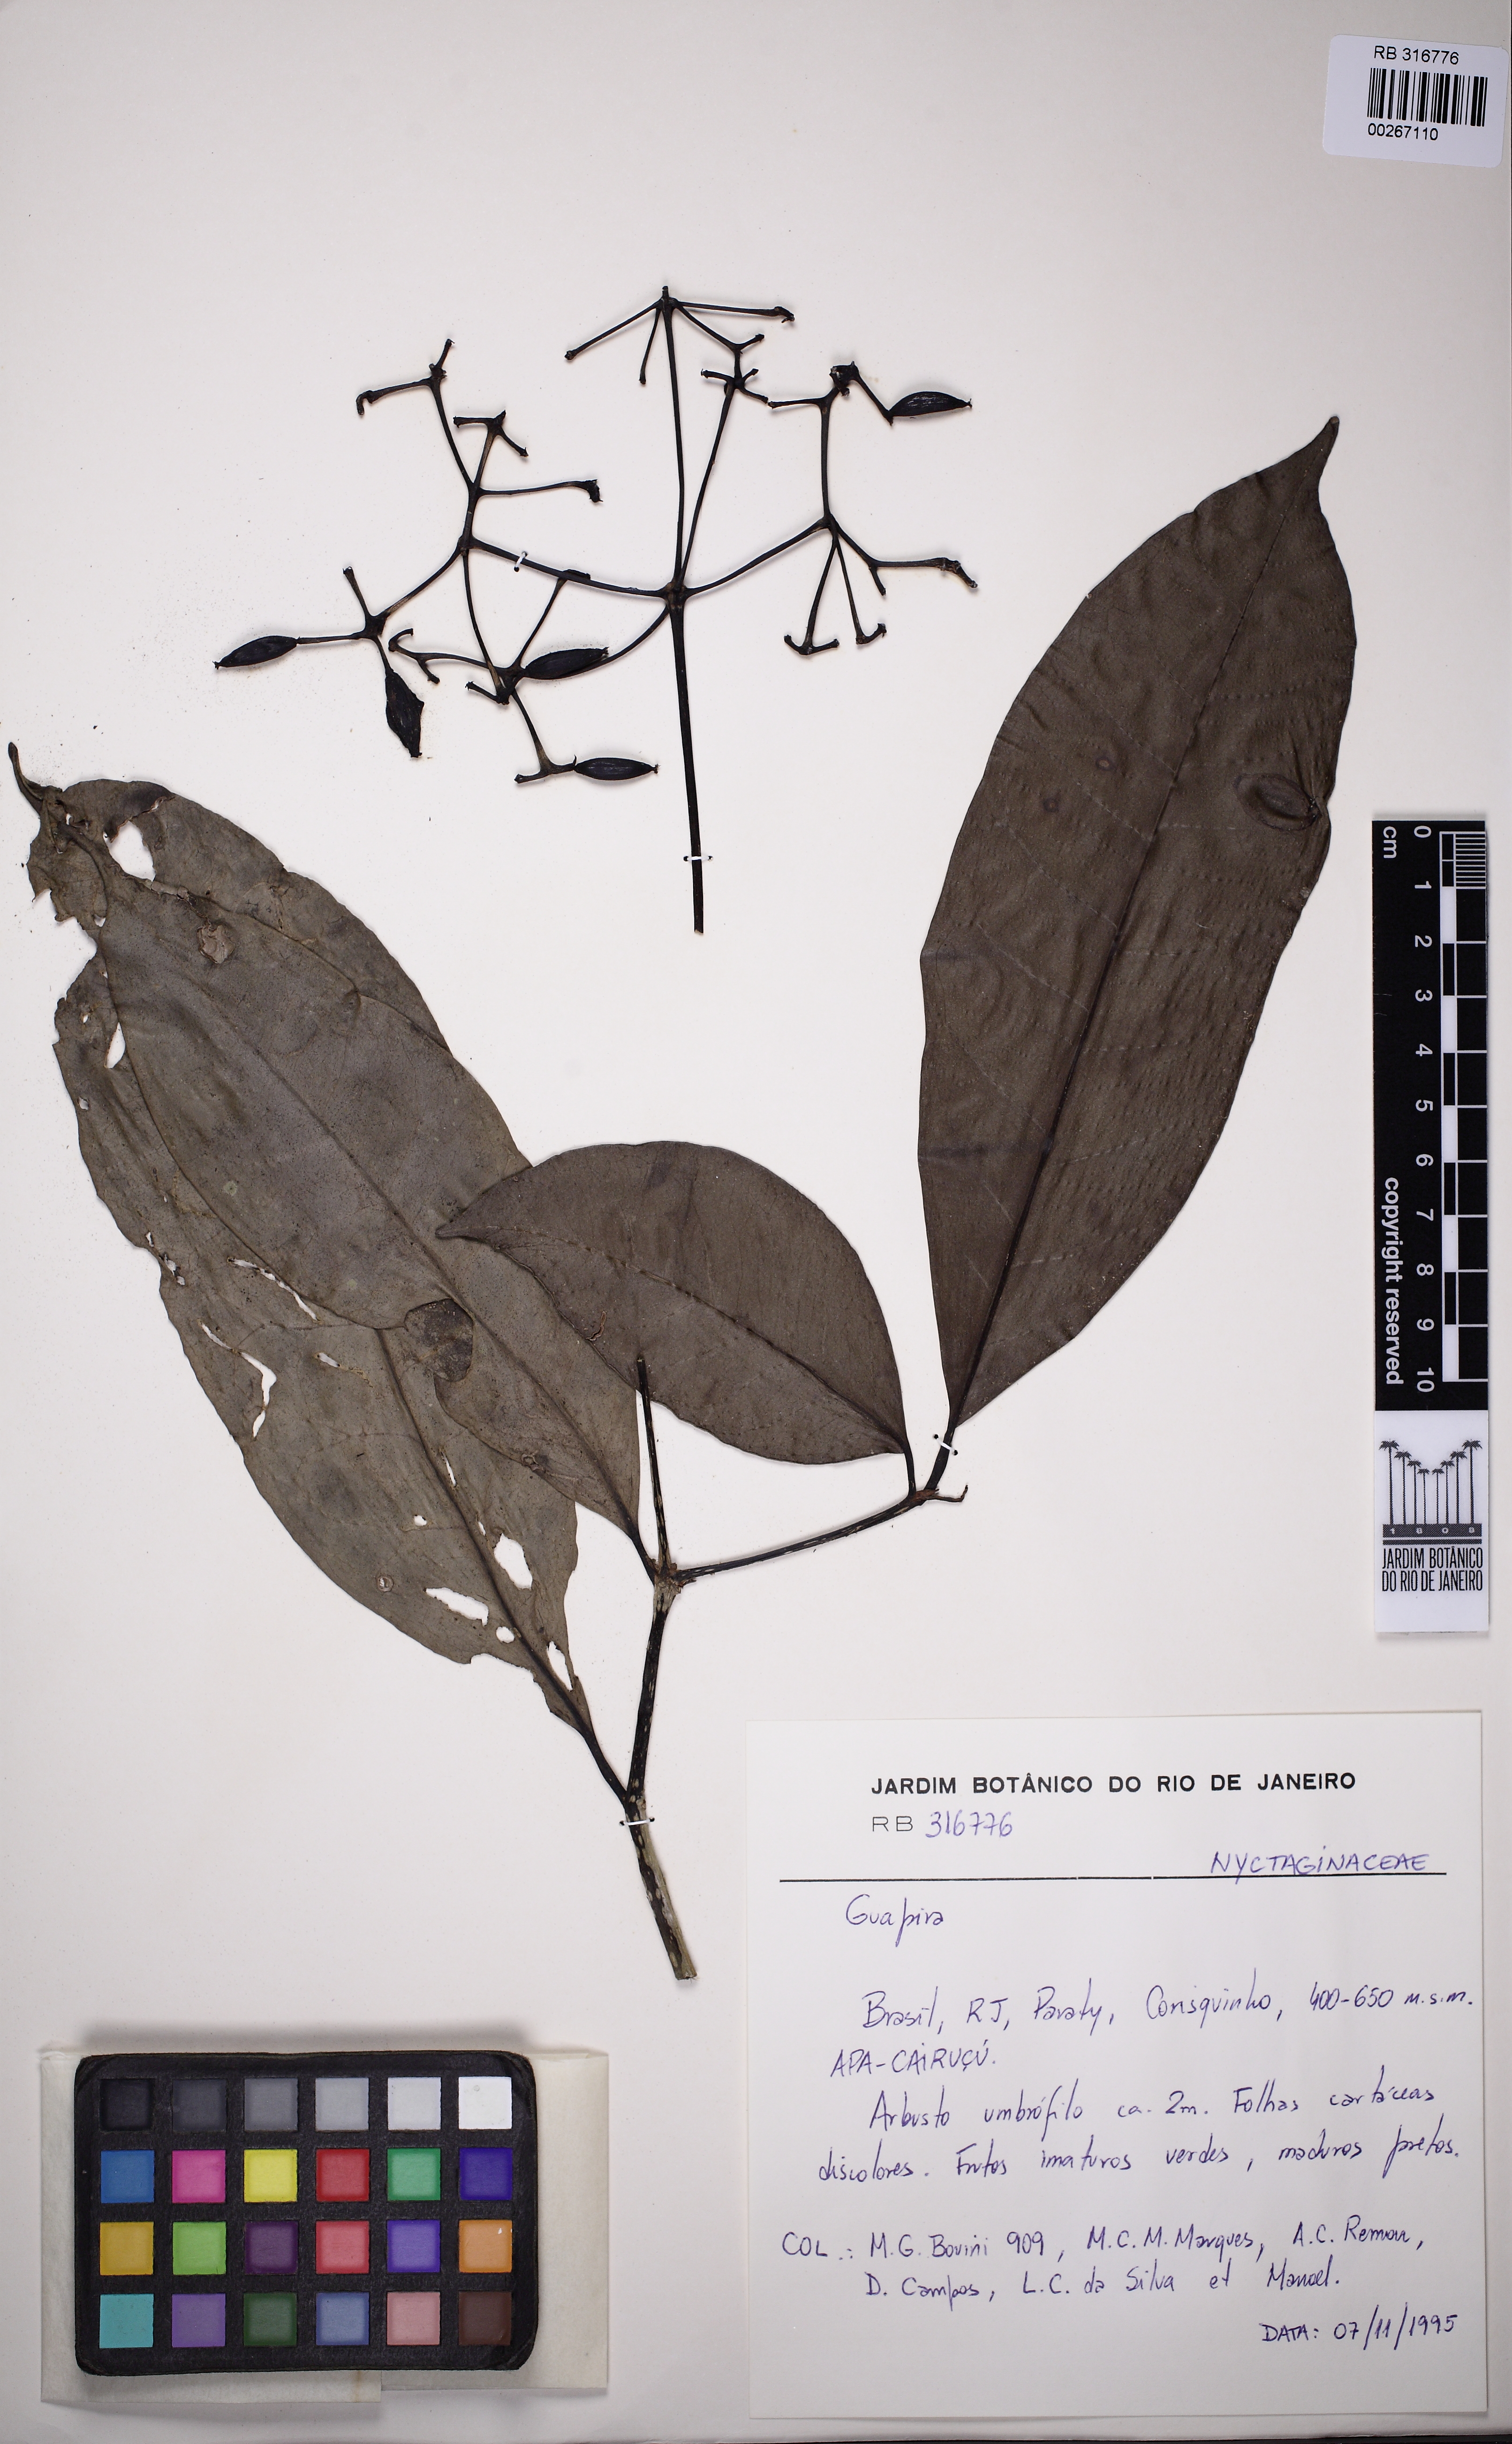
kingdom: Plantae
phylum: Tracheophyta
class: Magnoliopsida
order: Caryophyllales
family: Nyctaginaceae
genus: Guapira
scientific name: Guapira nitida
